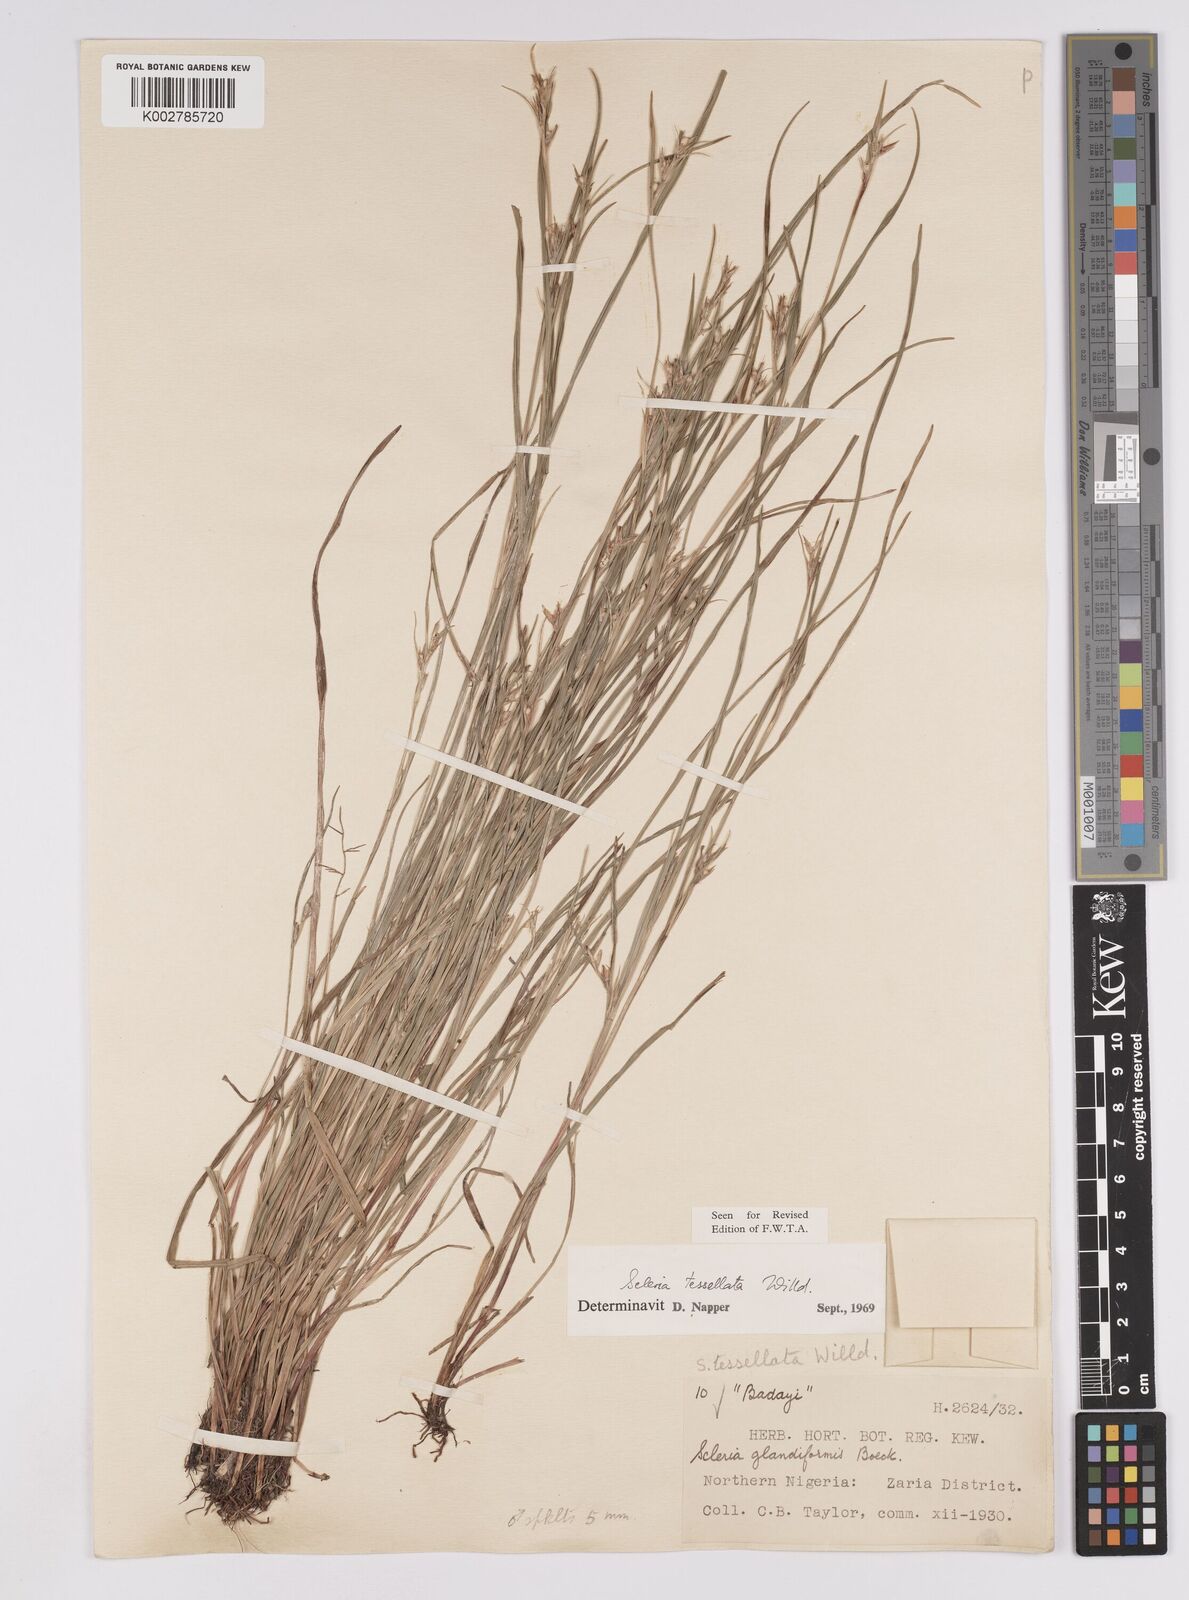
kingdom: Plantae
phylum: Tracheophyta
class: Liliopsida
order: Poales
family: Cyperaceae
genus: Scleria
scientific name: Scleria tessellata
